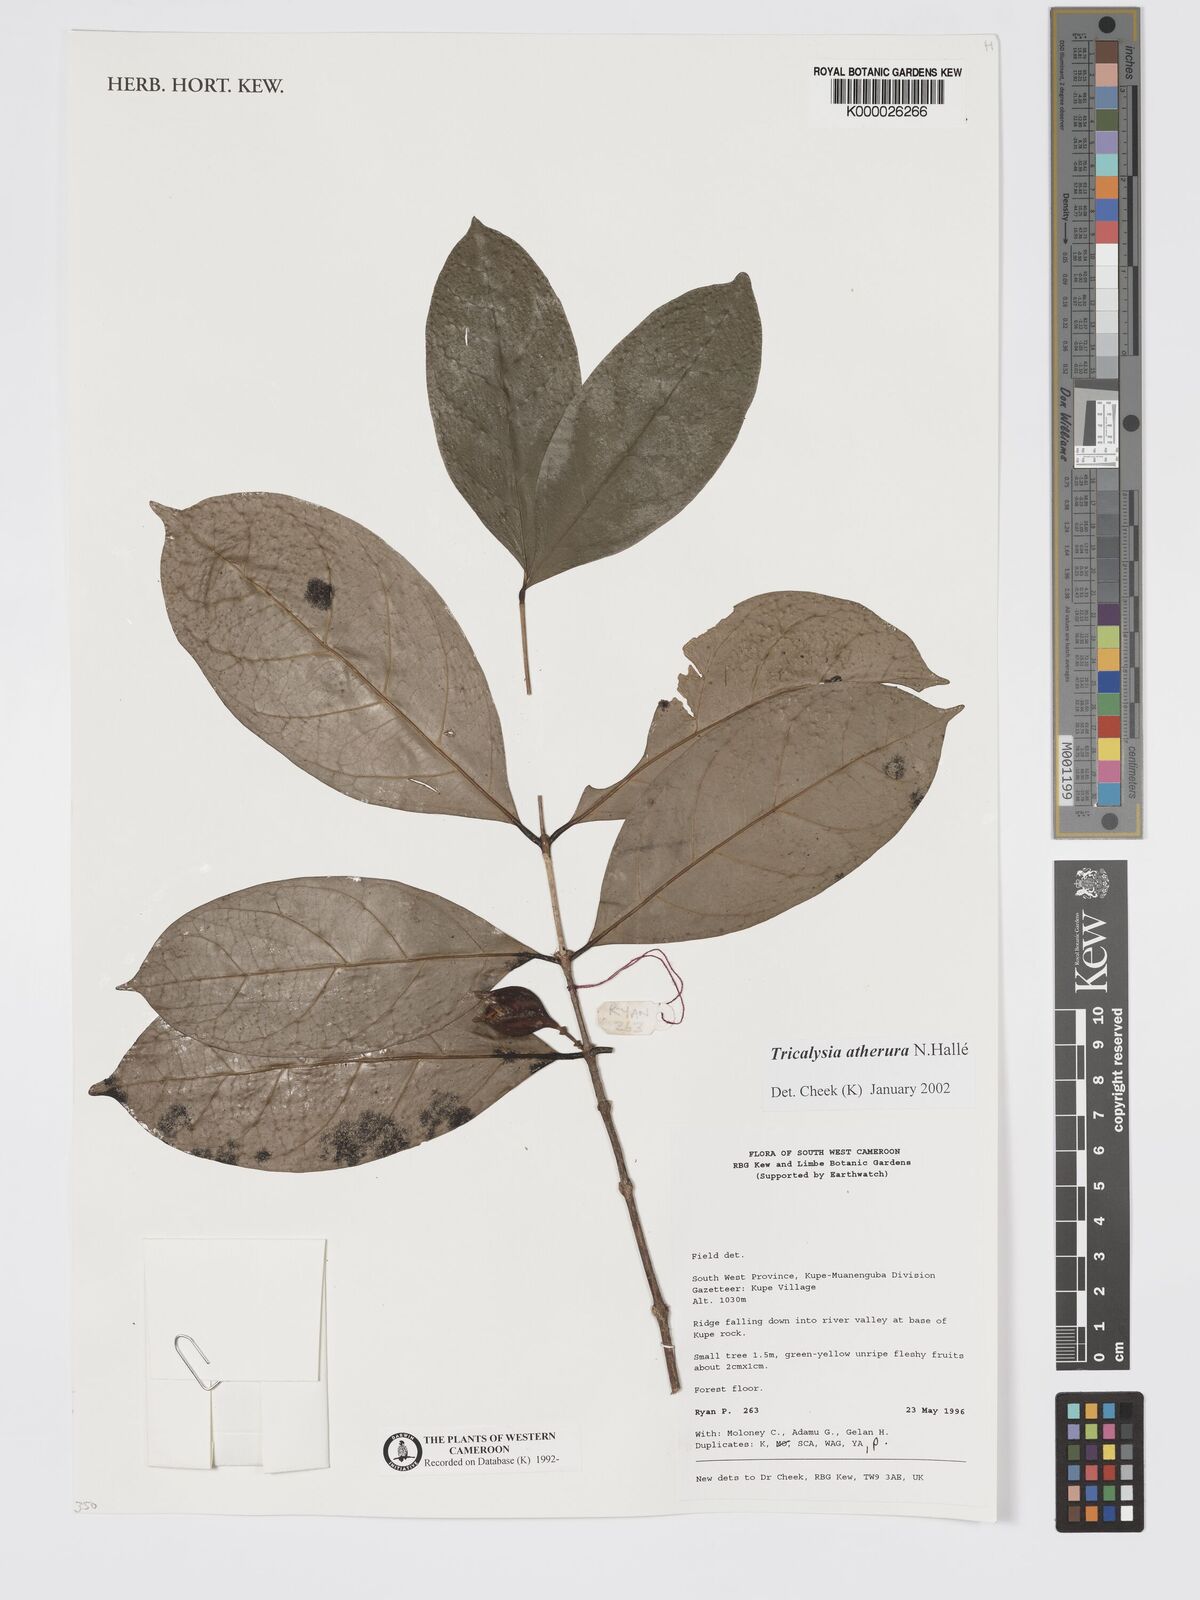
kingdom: Plantae
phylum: Tracheophyta
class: Magnoliopsida
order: Gentianales
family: Rubiaceae
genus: Tricalysia
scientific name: Tricalysia
